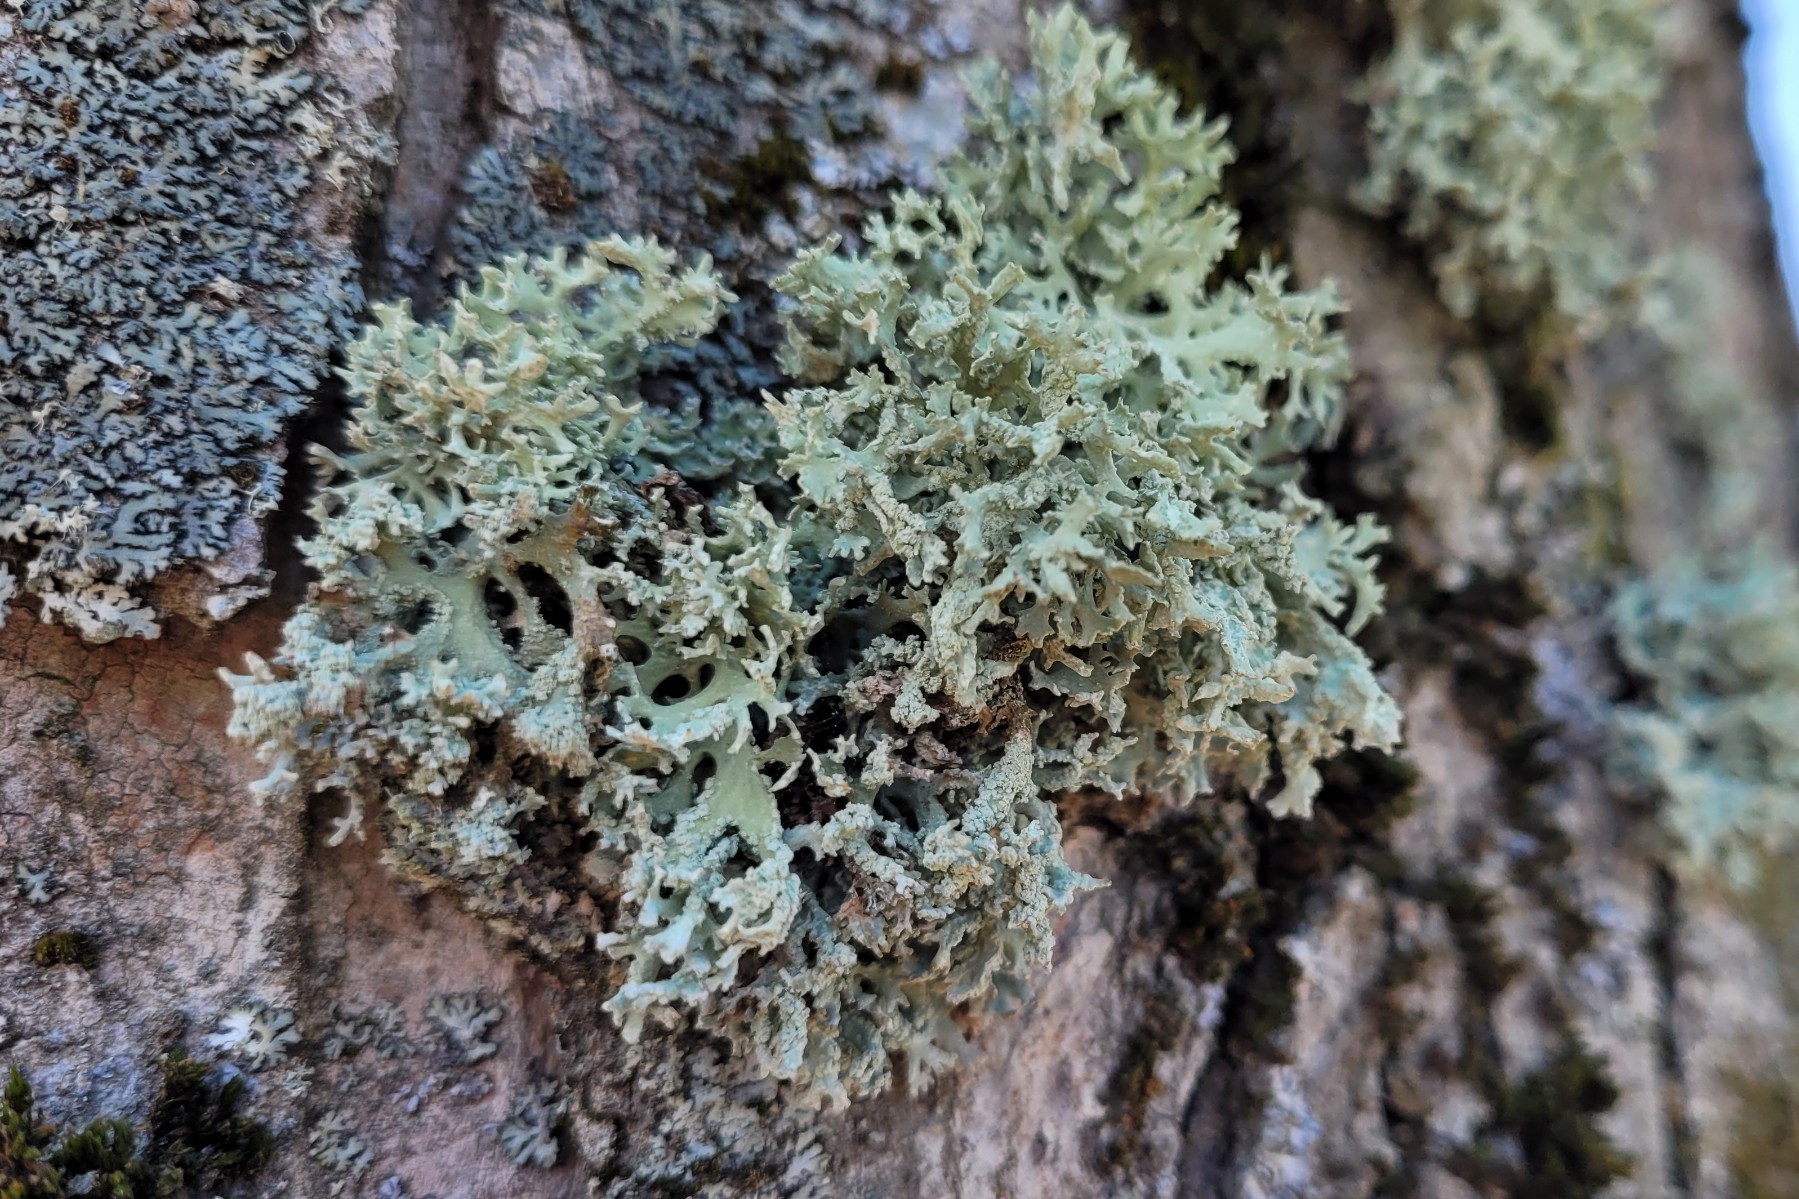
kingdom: Fungi
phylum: Ascomycota
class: Lecanoromycetes
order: Lecanorales
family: Parmeliaceae
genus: Evernia
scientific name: Evernia prunastri
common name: almindelig slåenlav
